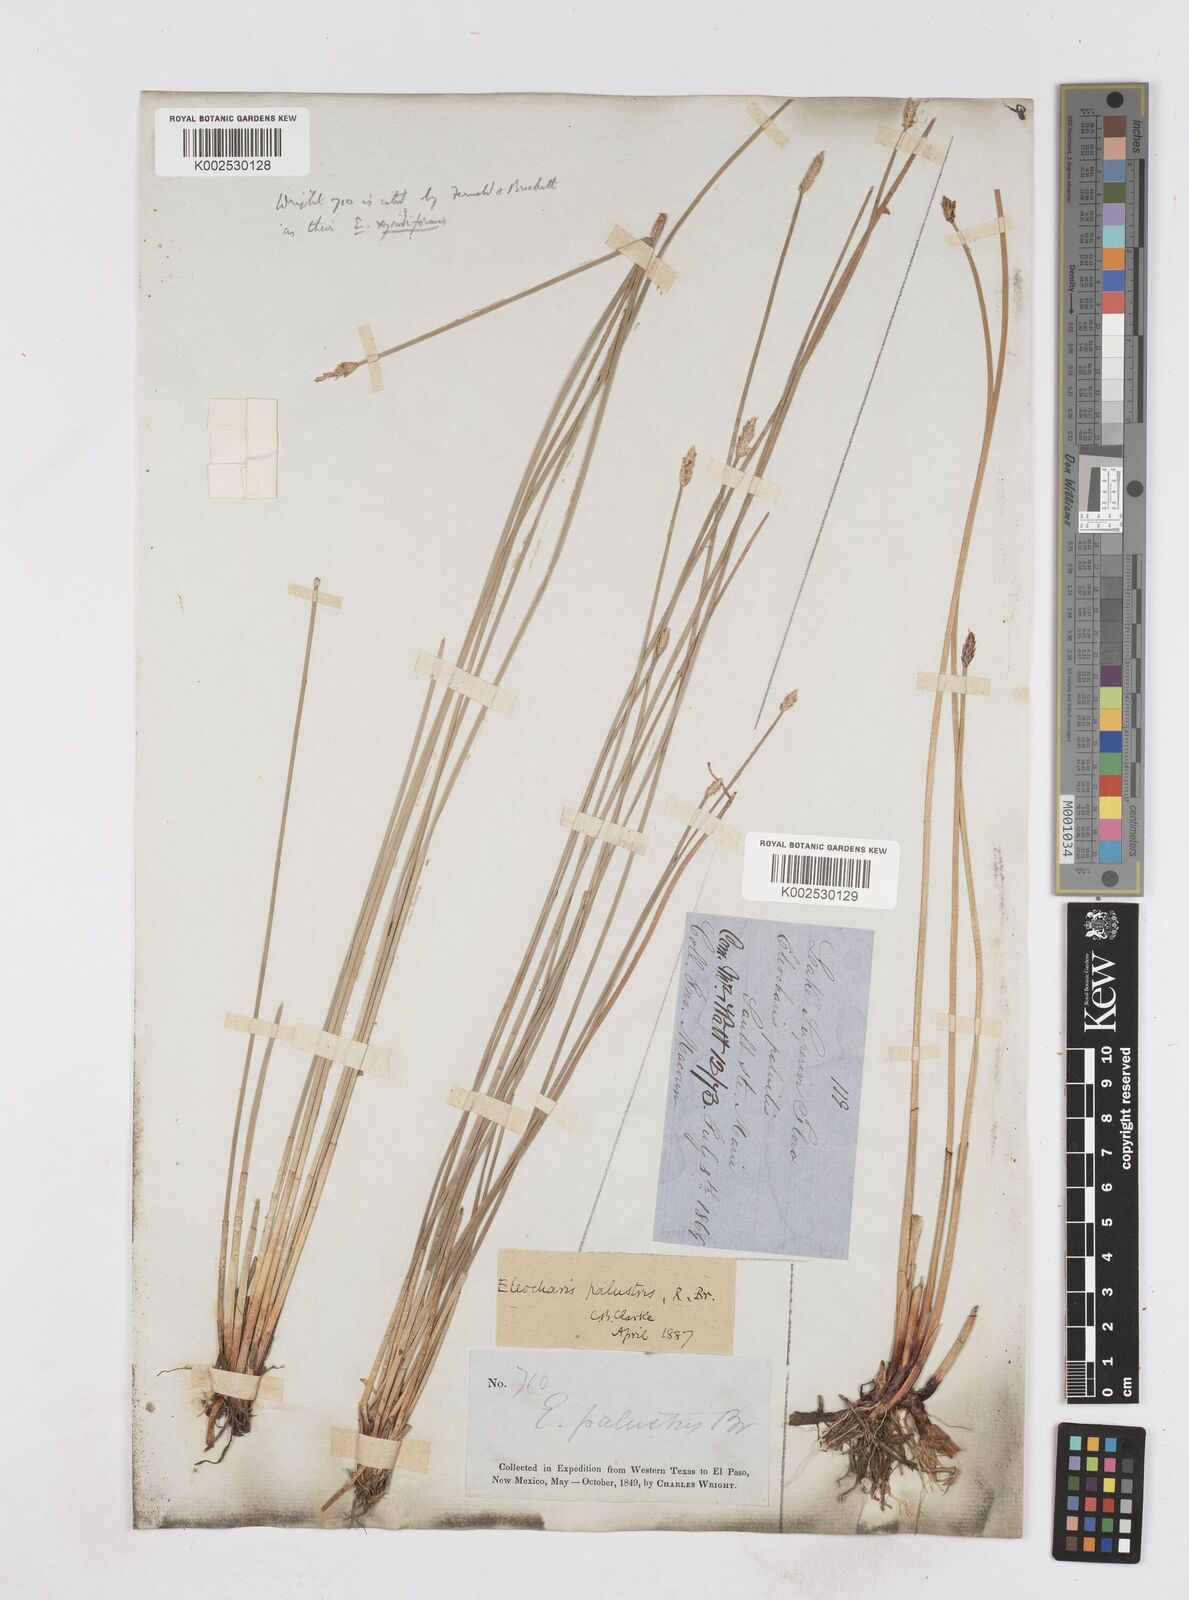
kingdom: Plantae
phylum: Tracheophyta
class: Liliopsida
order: Poales
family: Cyperaceae
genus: Eleocharis
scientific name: Eleocharis macrostachya
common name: Pale spikerush
